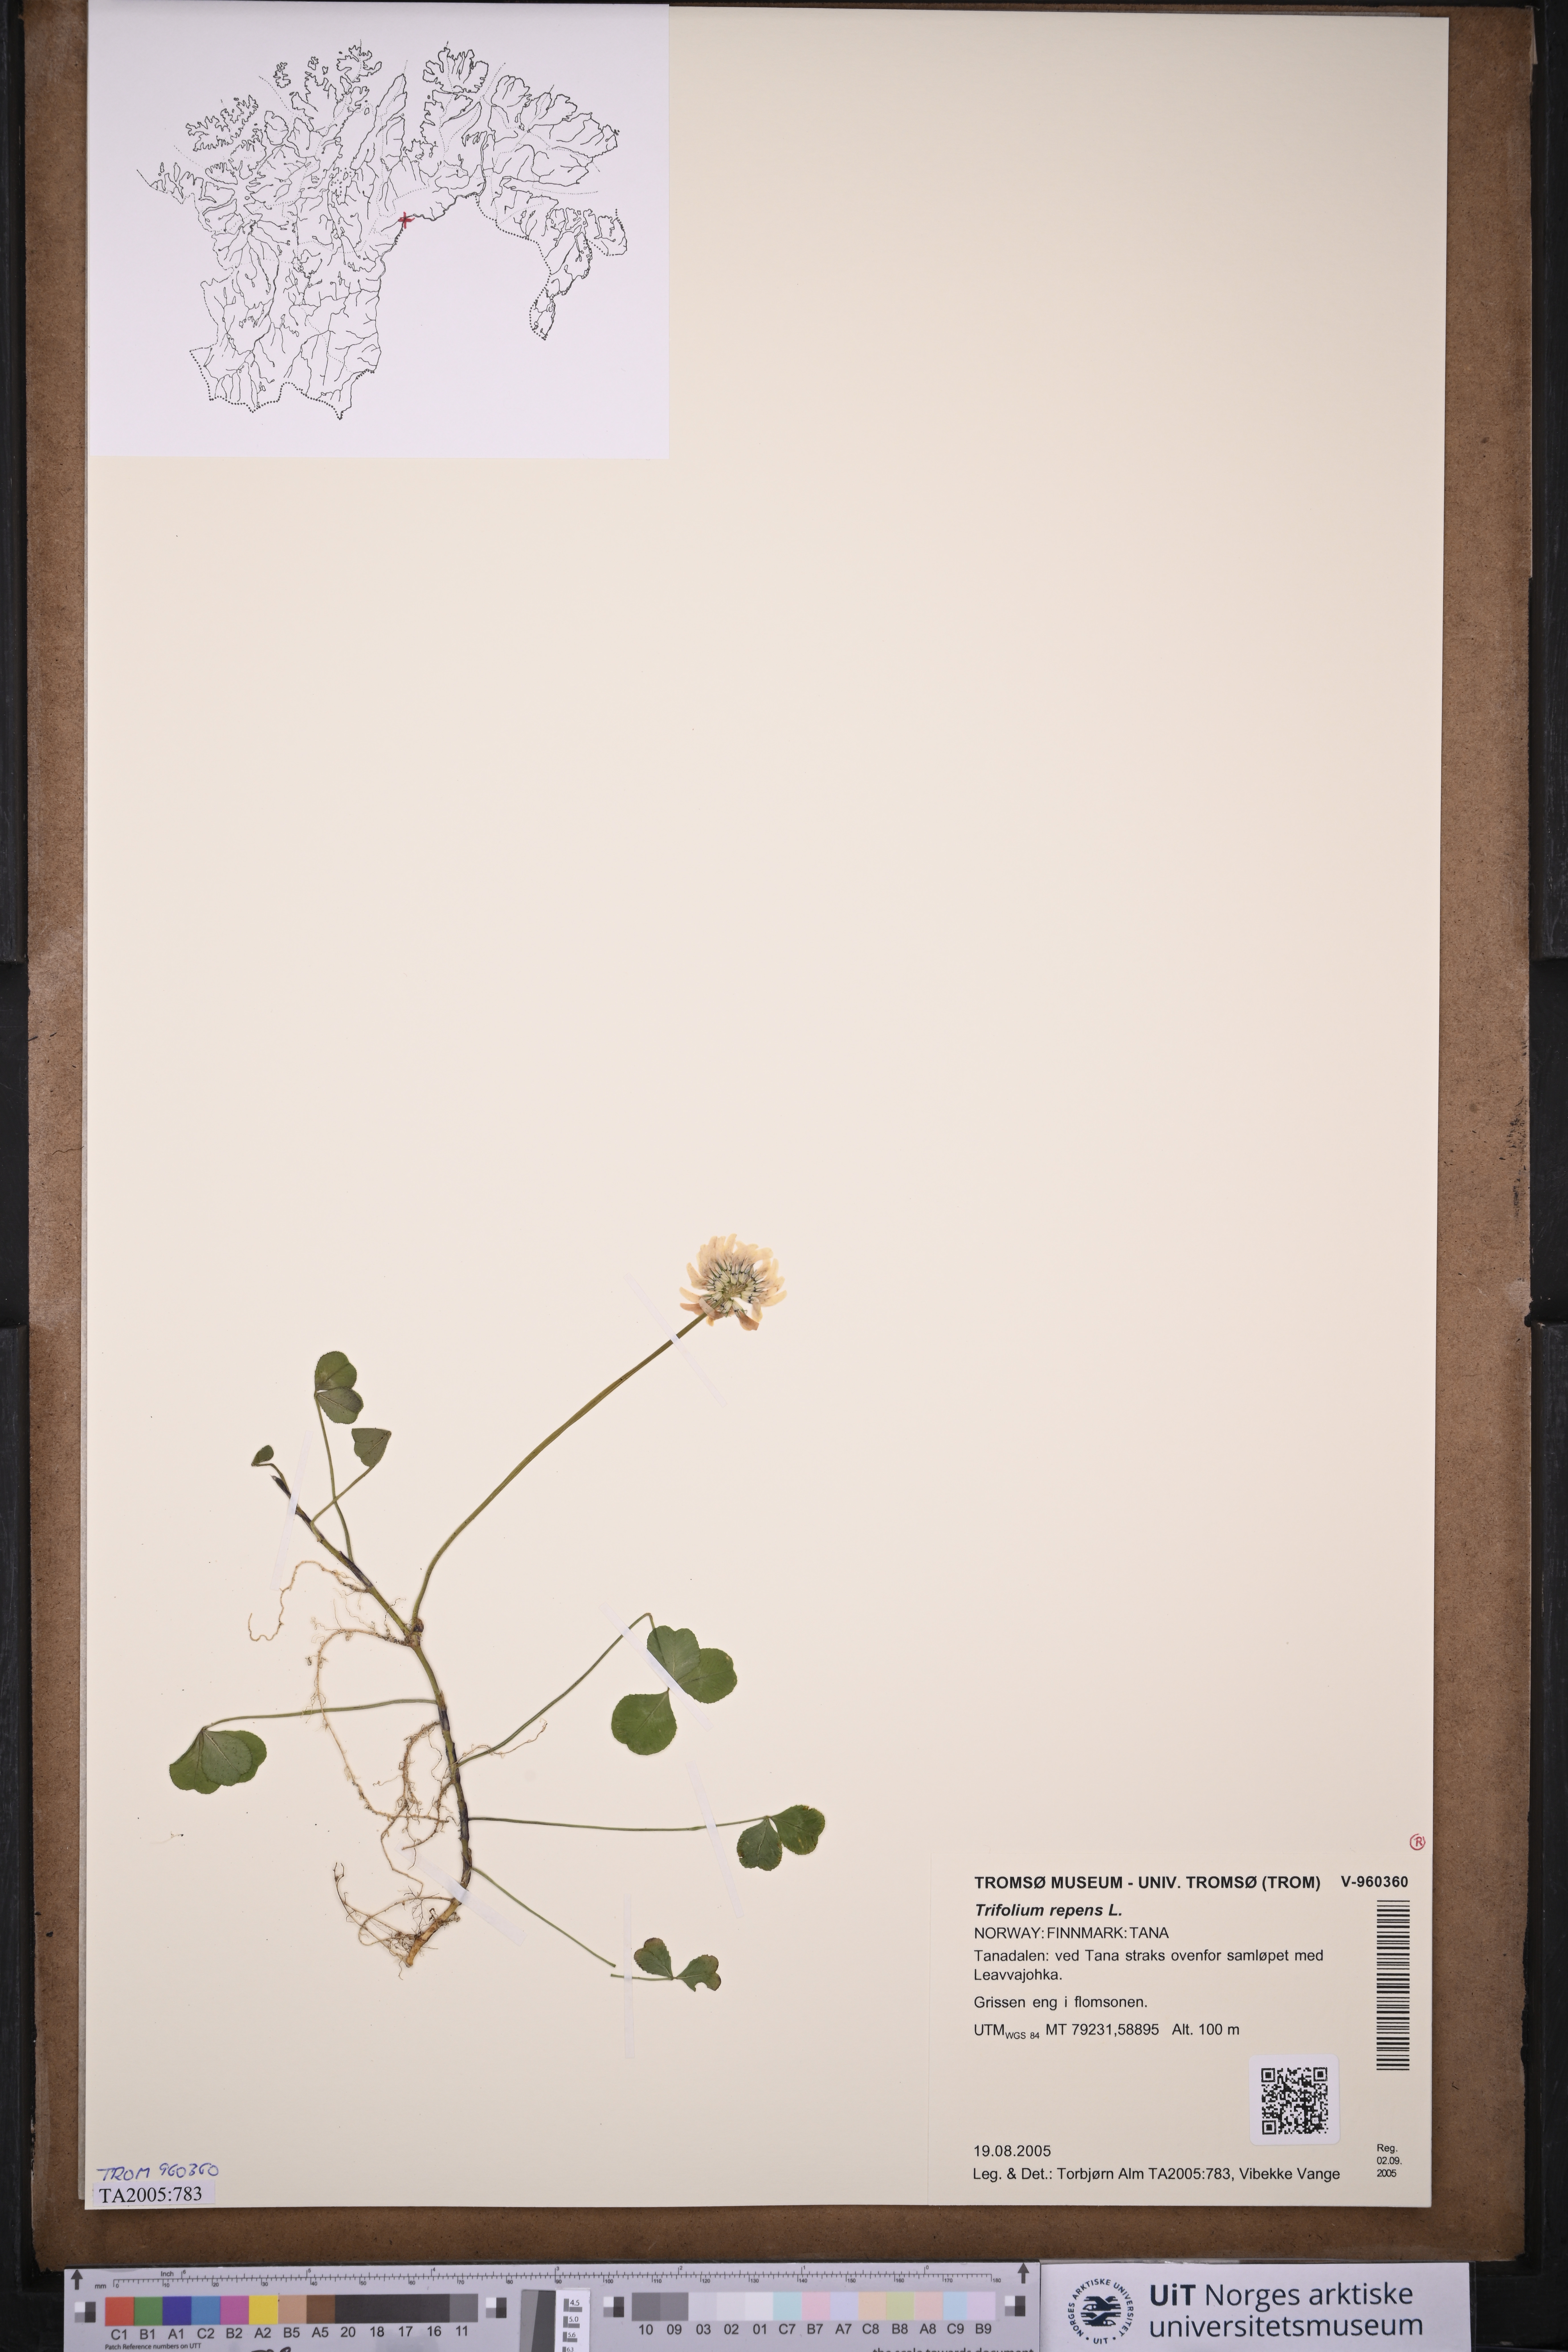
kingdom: Plantae
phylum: Tracheophyta
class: Magnoliopsida
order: Fabales
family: Fabaceae
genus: Trifolium
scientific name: Trifolium repens
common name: White clover
